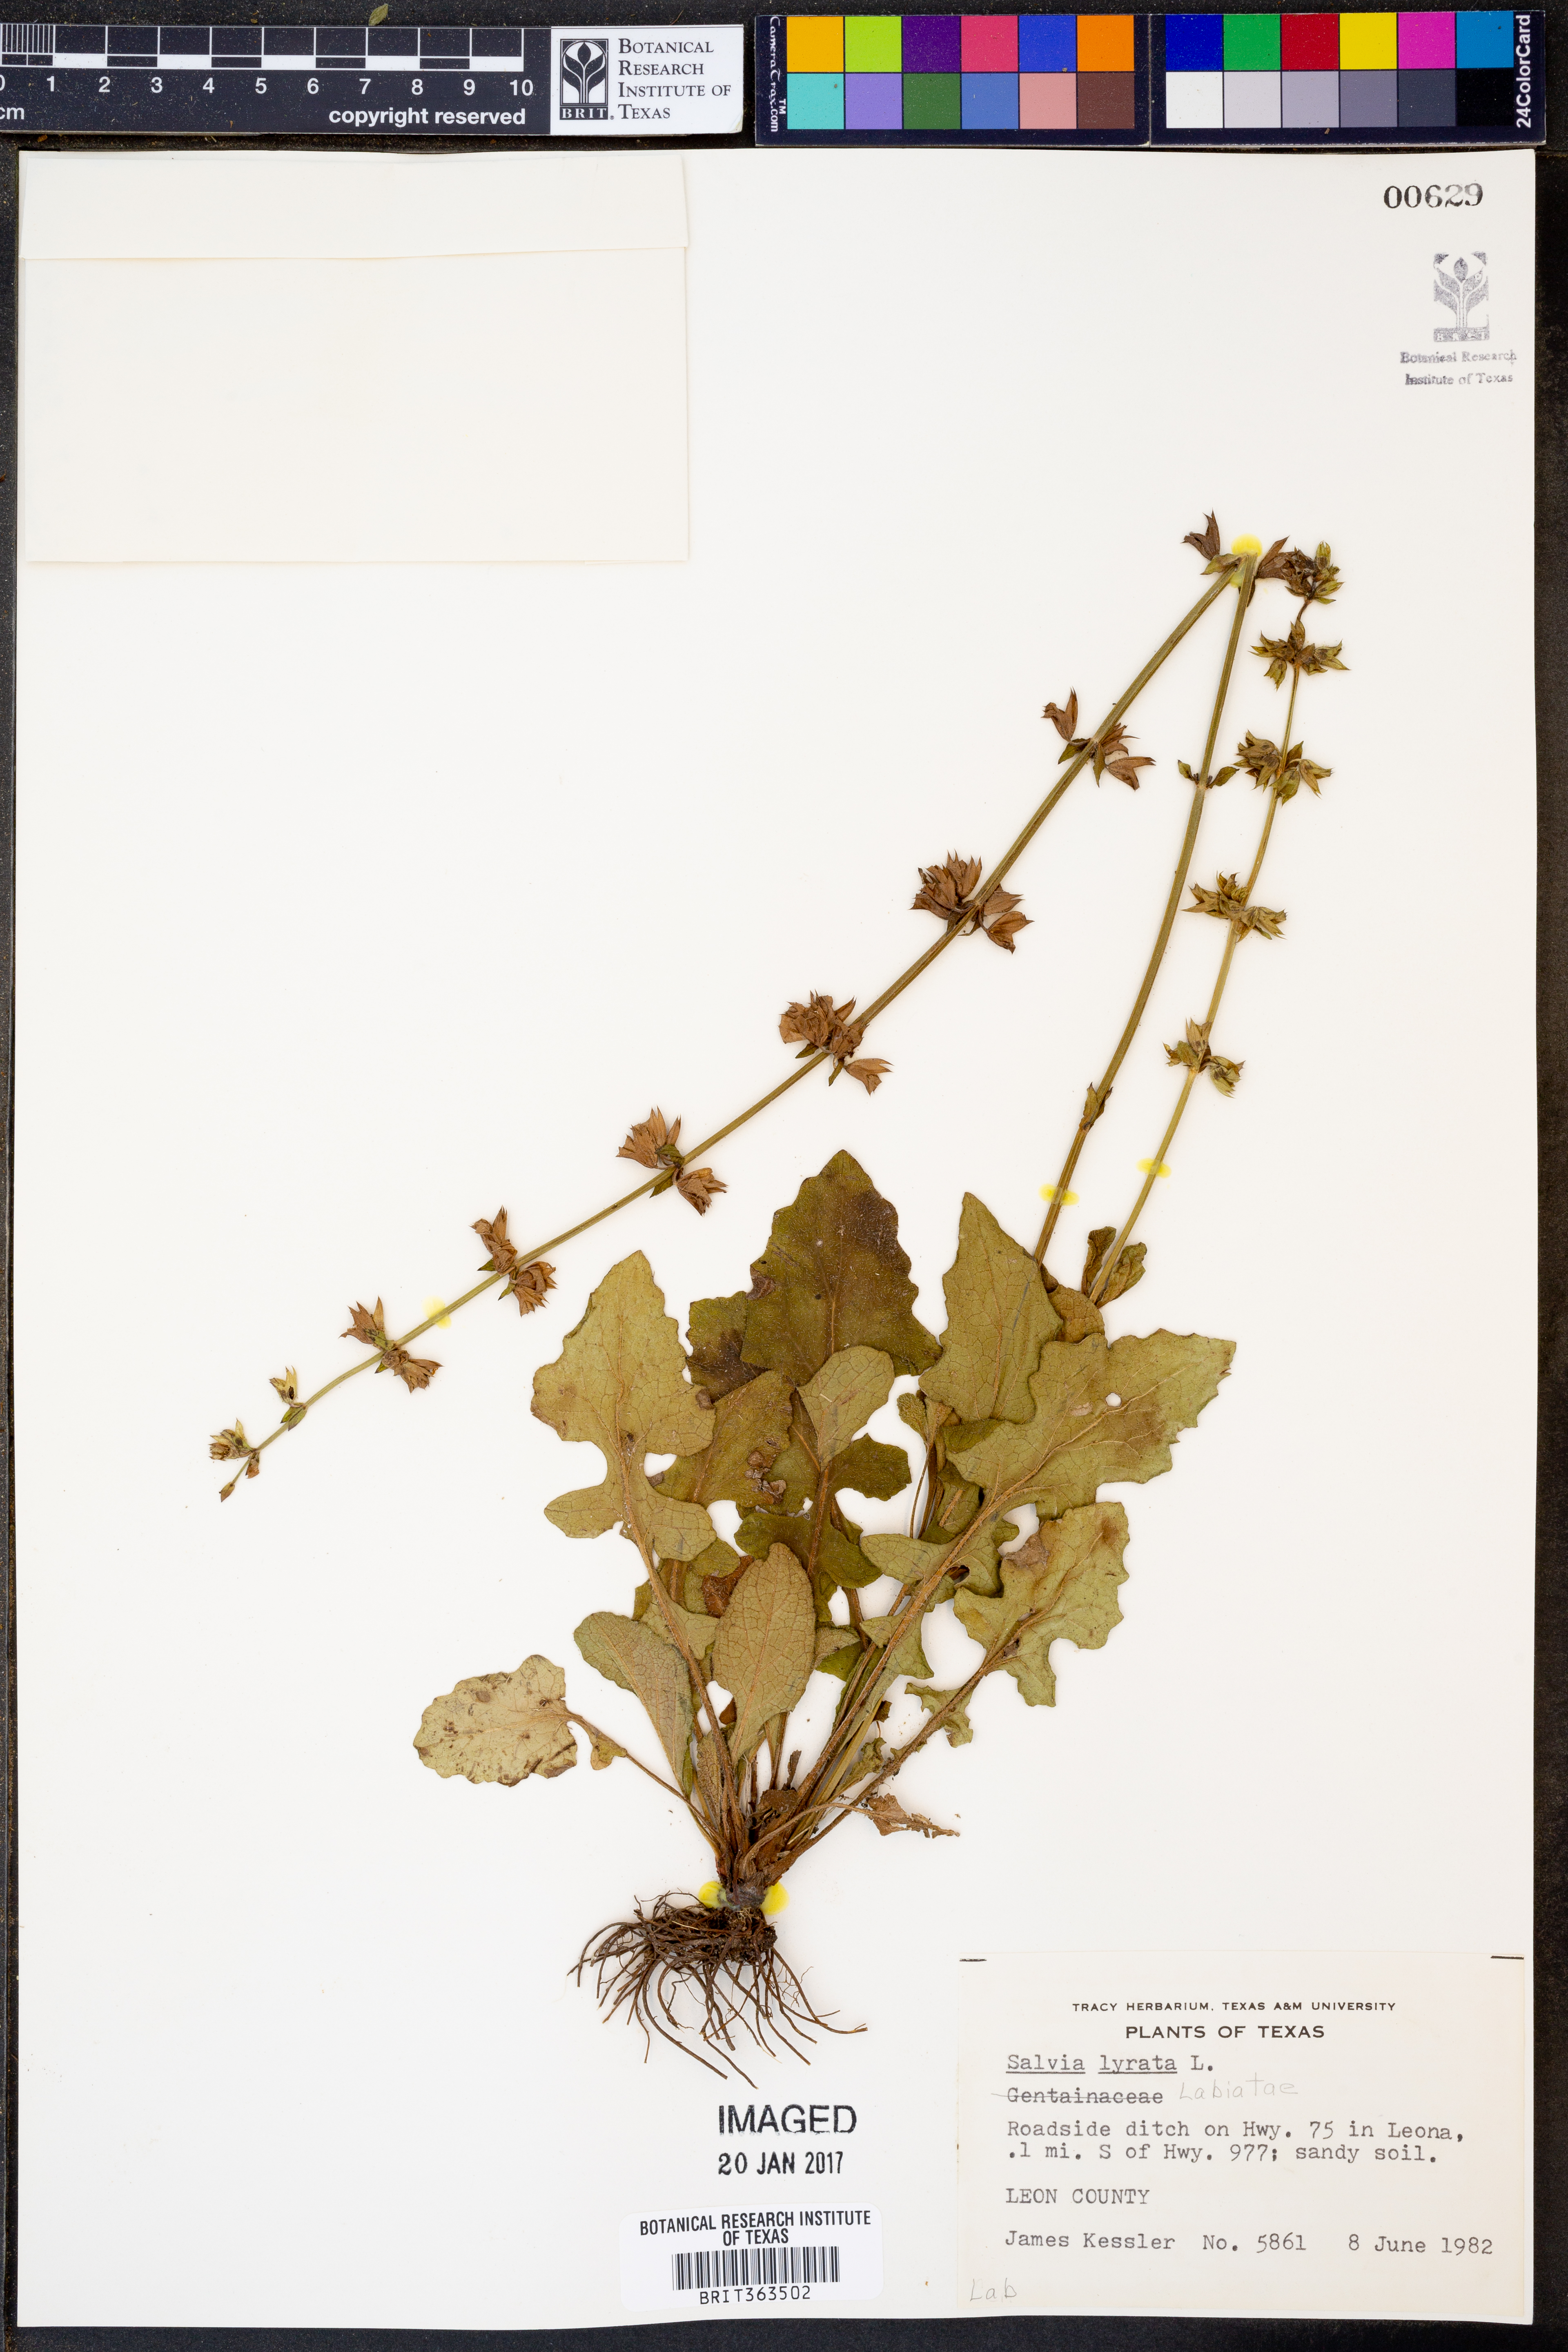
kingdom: Plantae
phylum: Tracheophyta
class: Magnoliopsida
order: Lamiales
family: Lamiaceae
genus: Salvia
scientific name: Salvia lyrata
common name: Cancerweed
